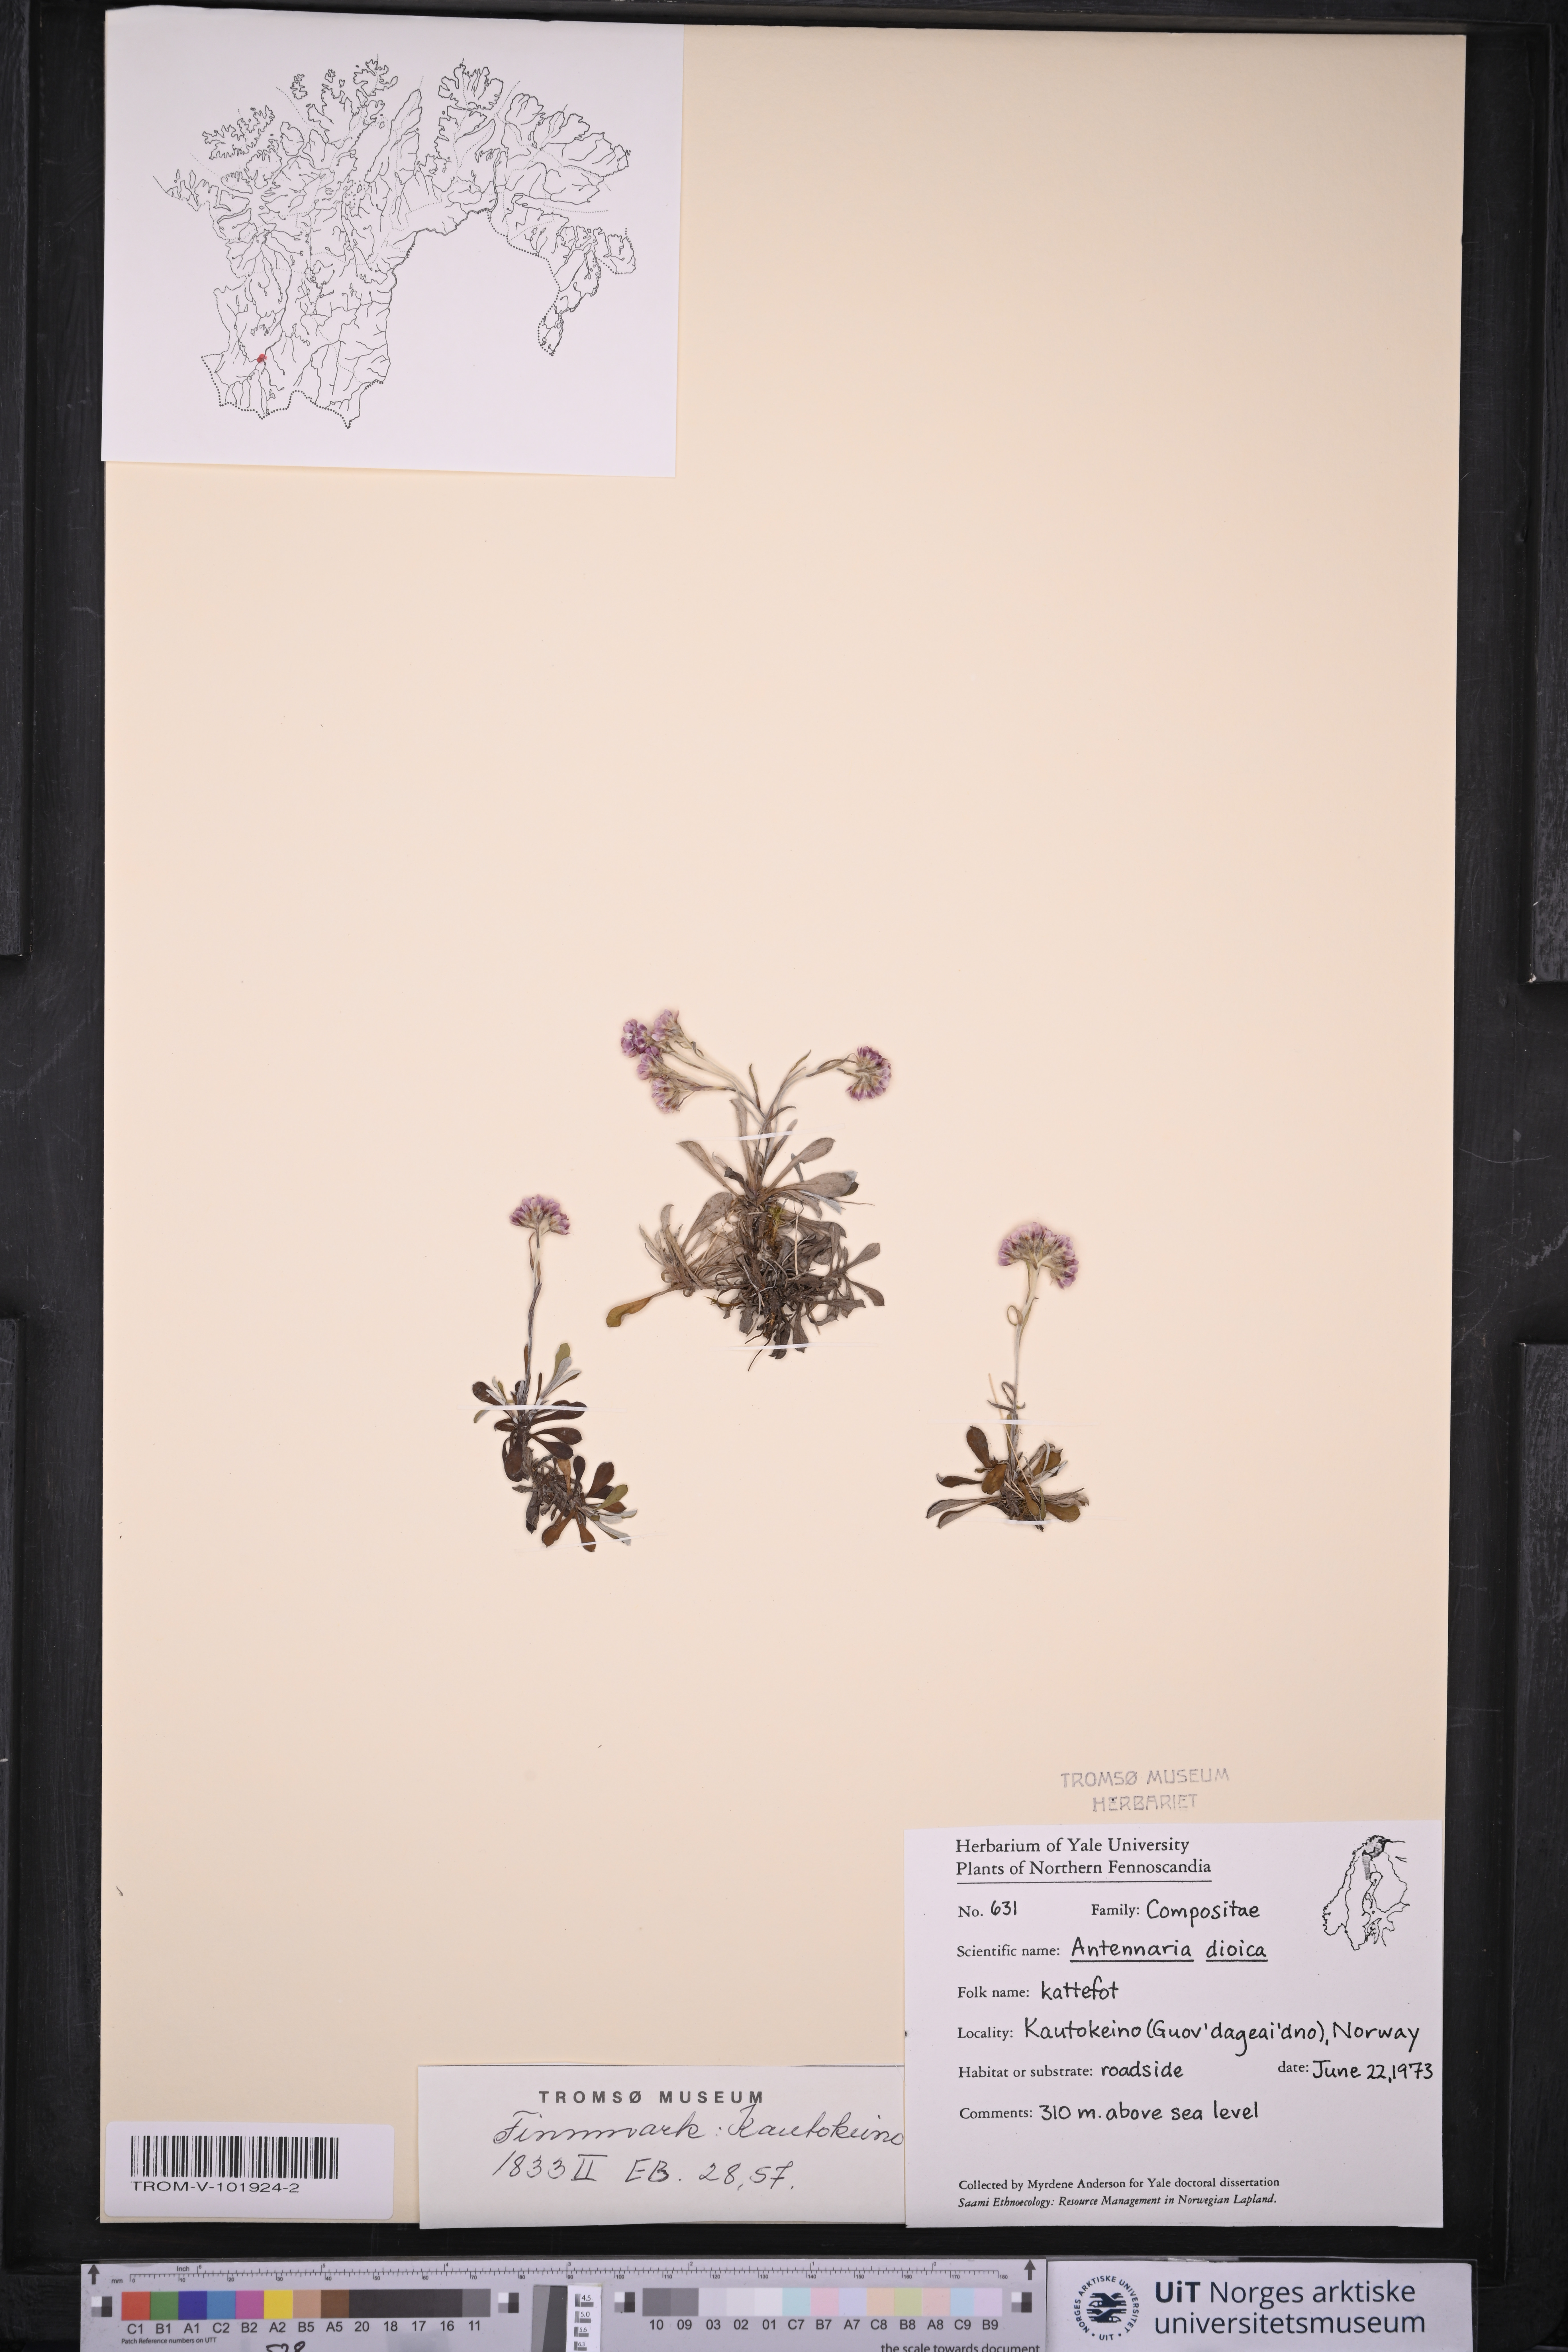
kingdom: Plantae
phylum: Tracheophyta
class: Magnoliopsida
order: Asterales
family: Asteraceae
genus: Antennaria
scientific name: Antennaria dioica
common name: Mountain everlasting
